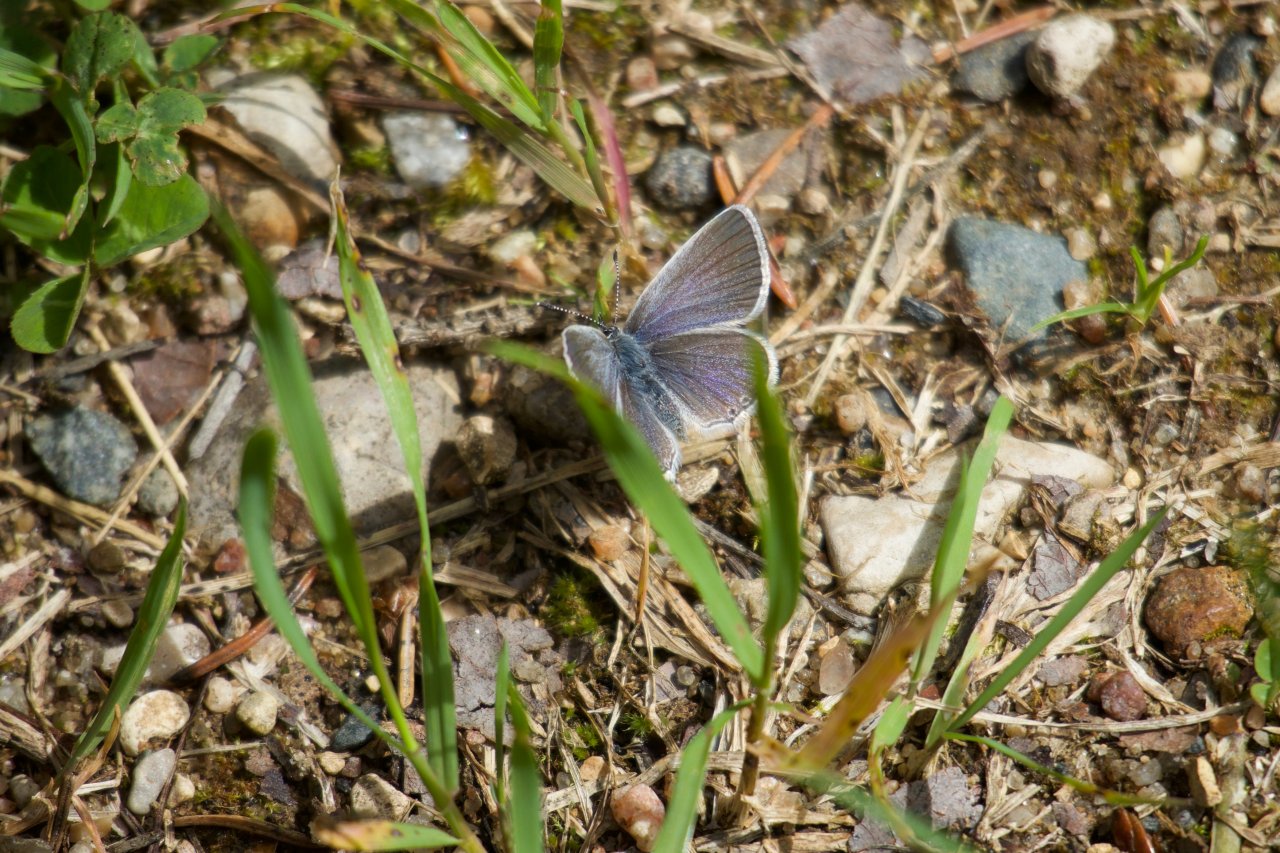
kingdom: Animalia
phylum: Arthropoda
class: Insecta
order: Lepidoptera
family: Lycaenidae
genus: Glaucopsyche
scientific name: Glaucopsyche lygdamus
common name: Silvery Blue
